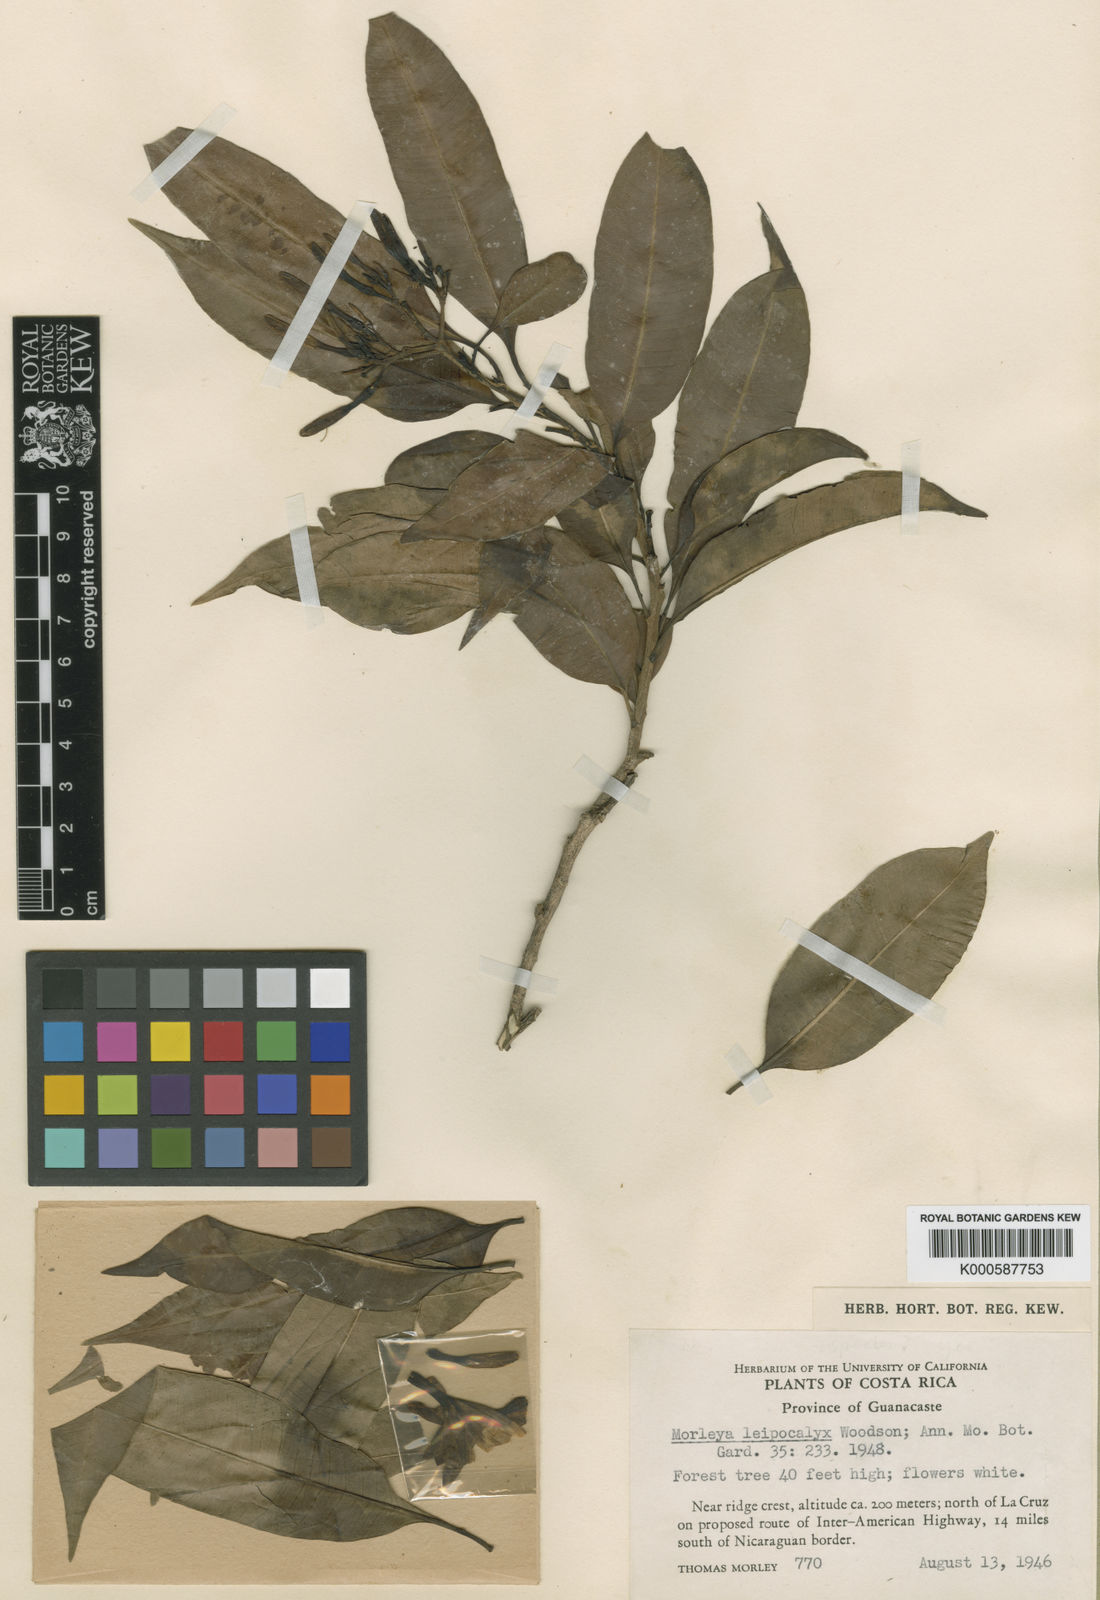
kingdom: Plantae
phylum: Tracheophyta
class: Magnoliopsida
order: Gentianales
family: Apocynaceae
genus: Mortoniella
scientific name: Mortoniella pittieri
